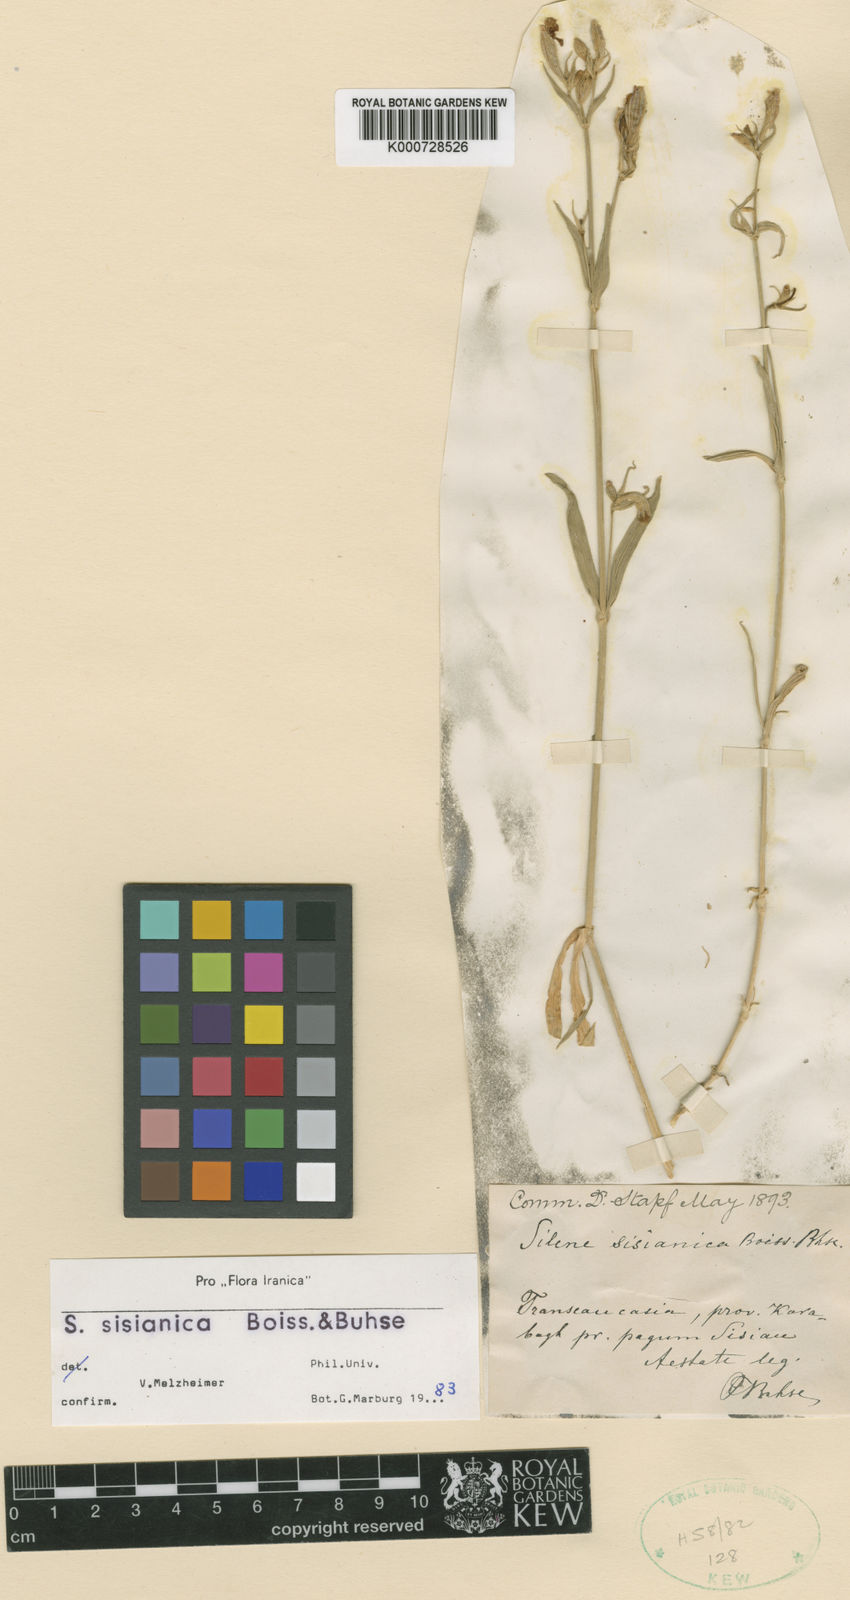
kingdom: Plantae
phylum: Tracheophyta
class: Magnoliopsida
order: Caryophyllales
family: Caryophyllaceae
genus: Silene
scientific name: Silene arguta
